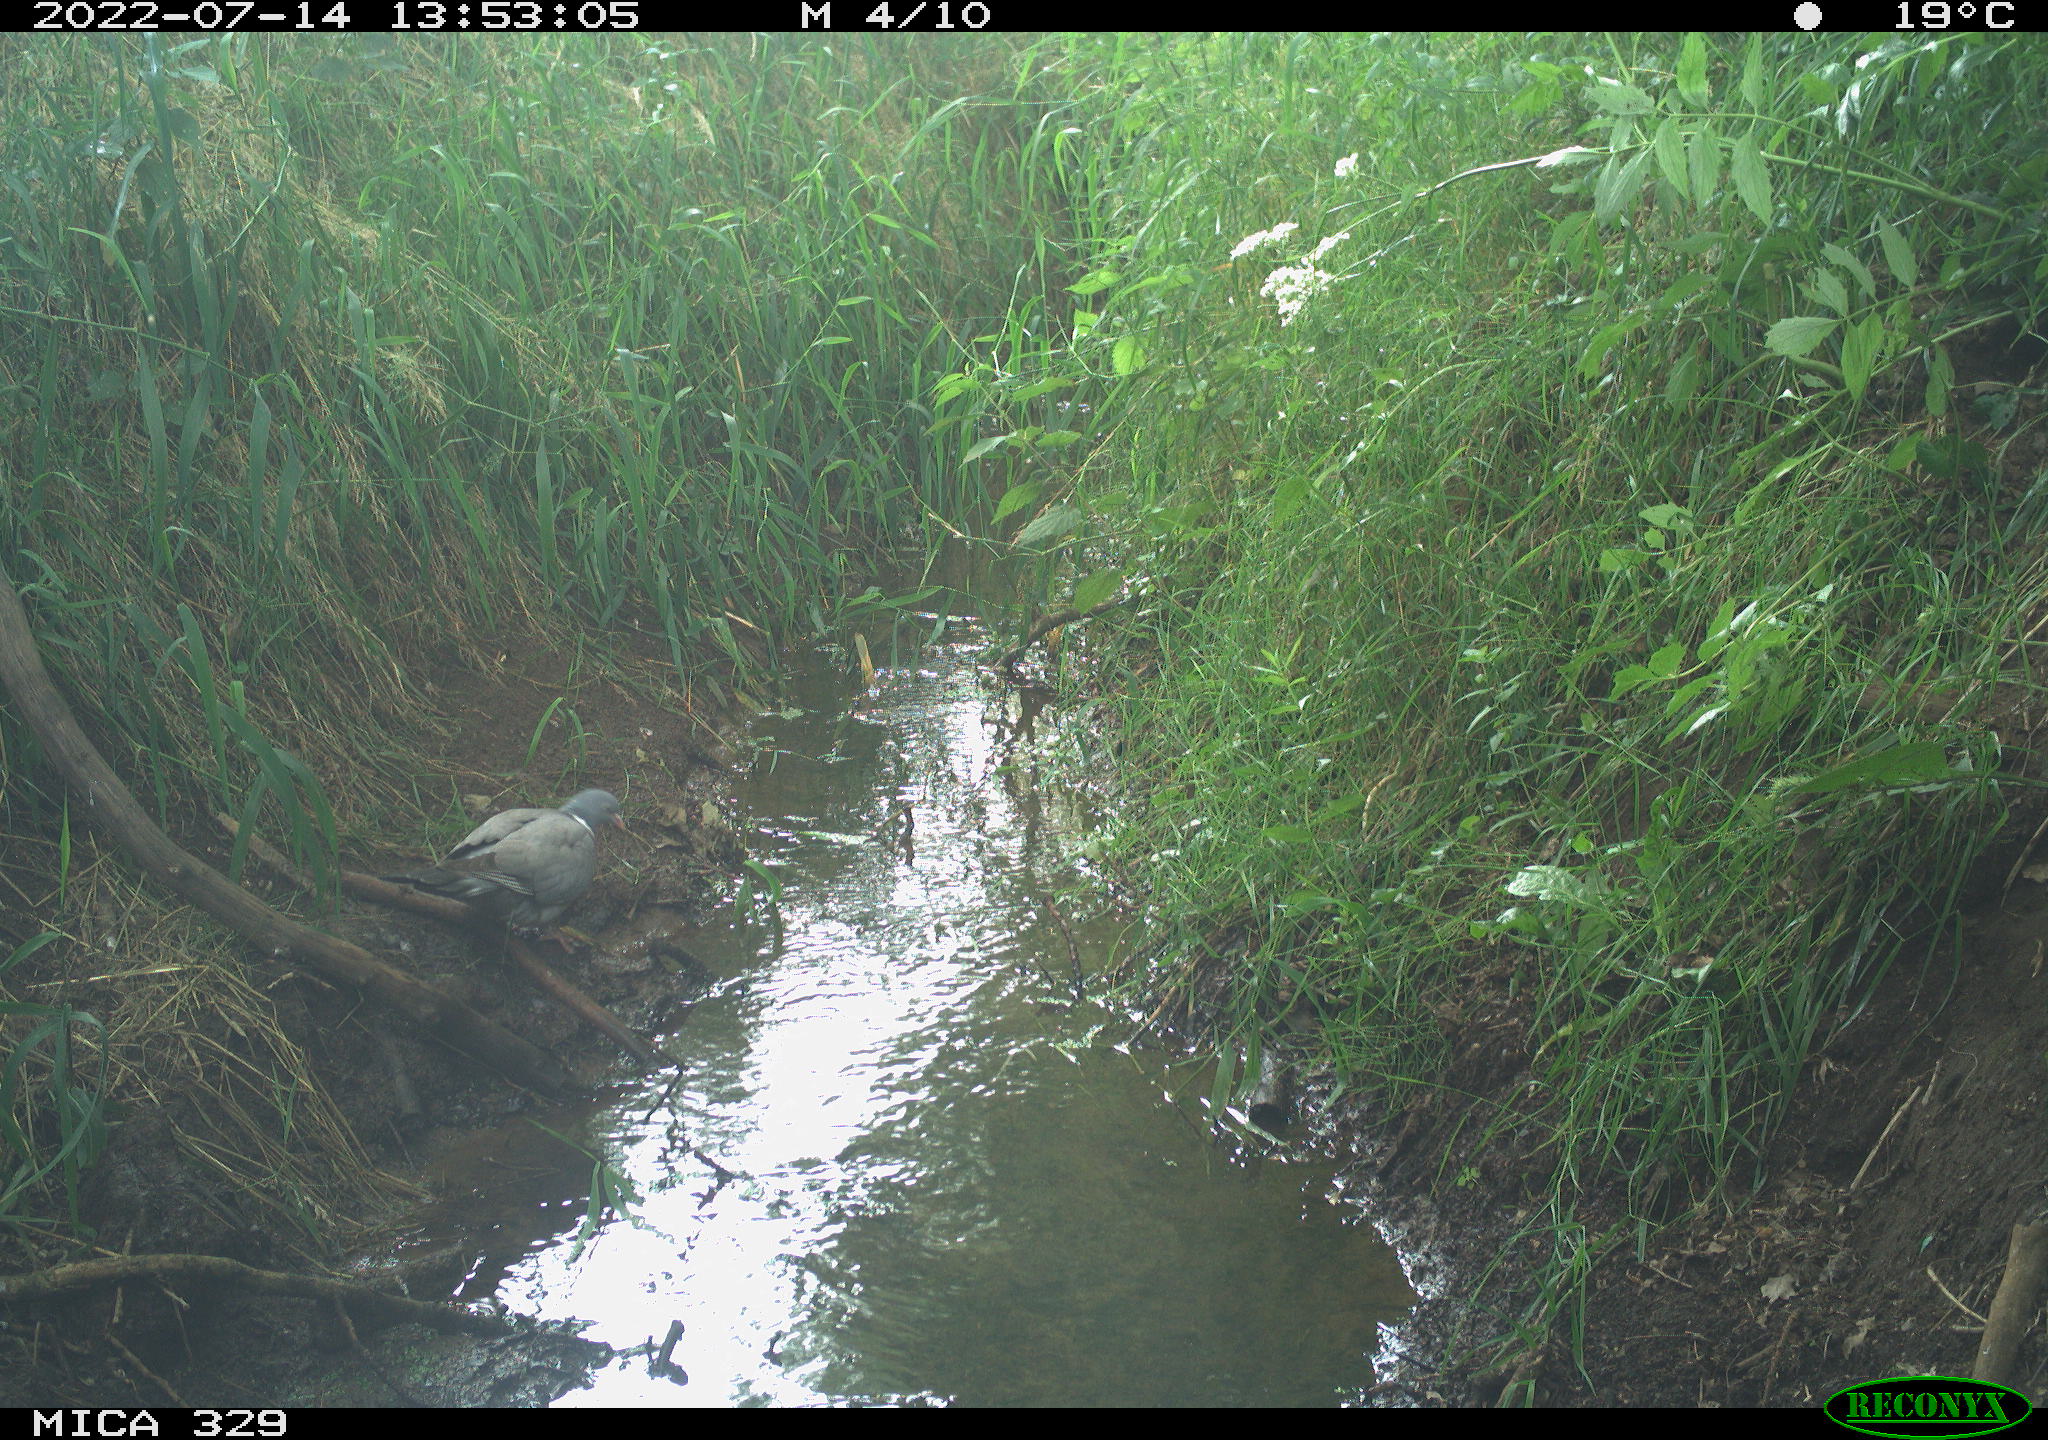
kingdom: Animalia
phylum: Chordata
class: Aves
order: Columbiformes
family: Columbidae
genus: Columba
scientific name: Columba palumbus
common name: Common wood pigeon
